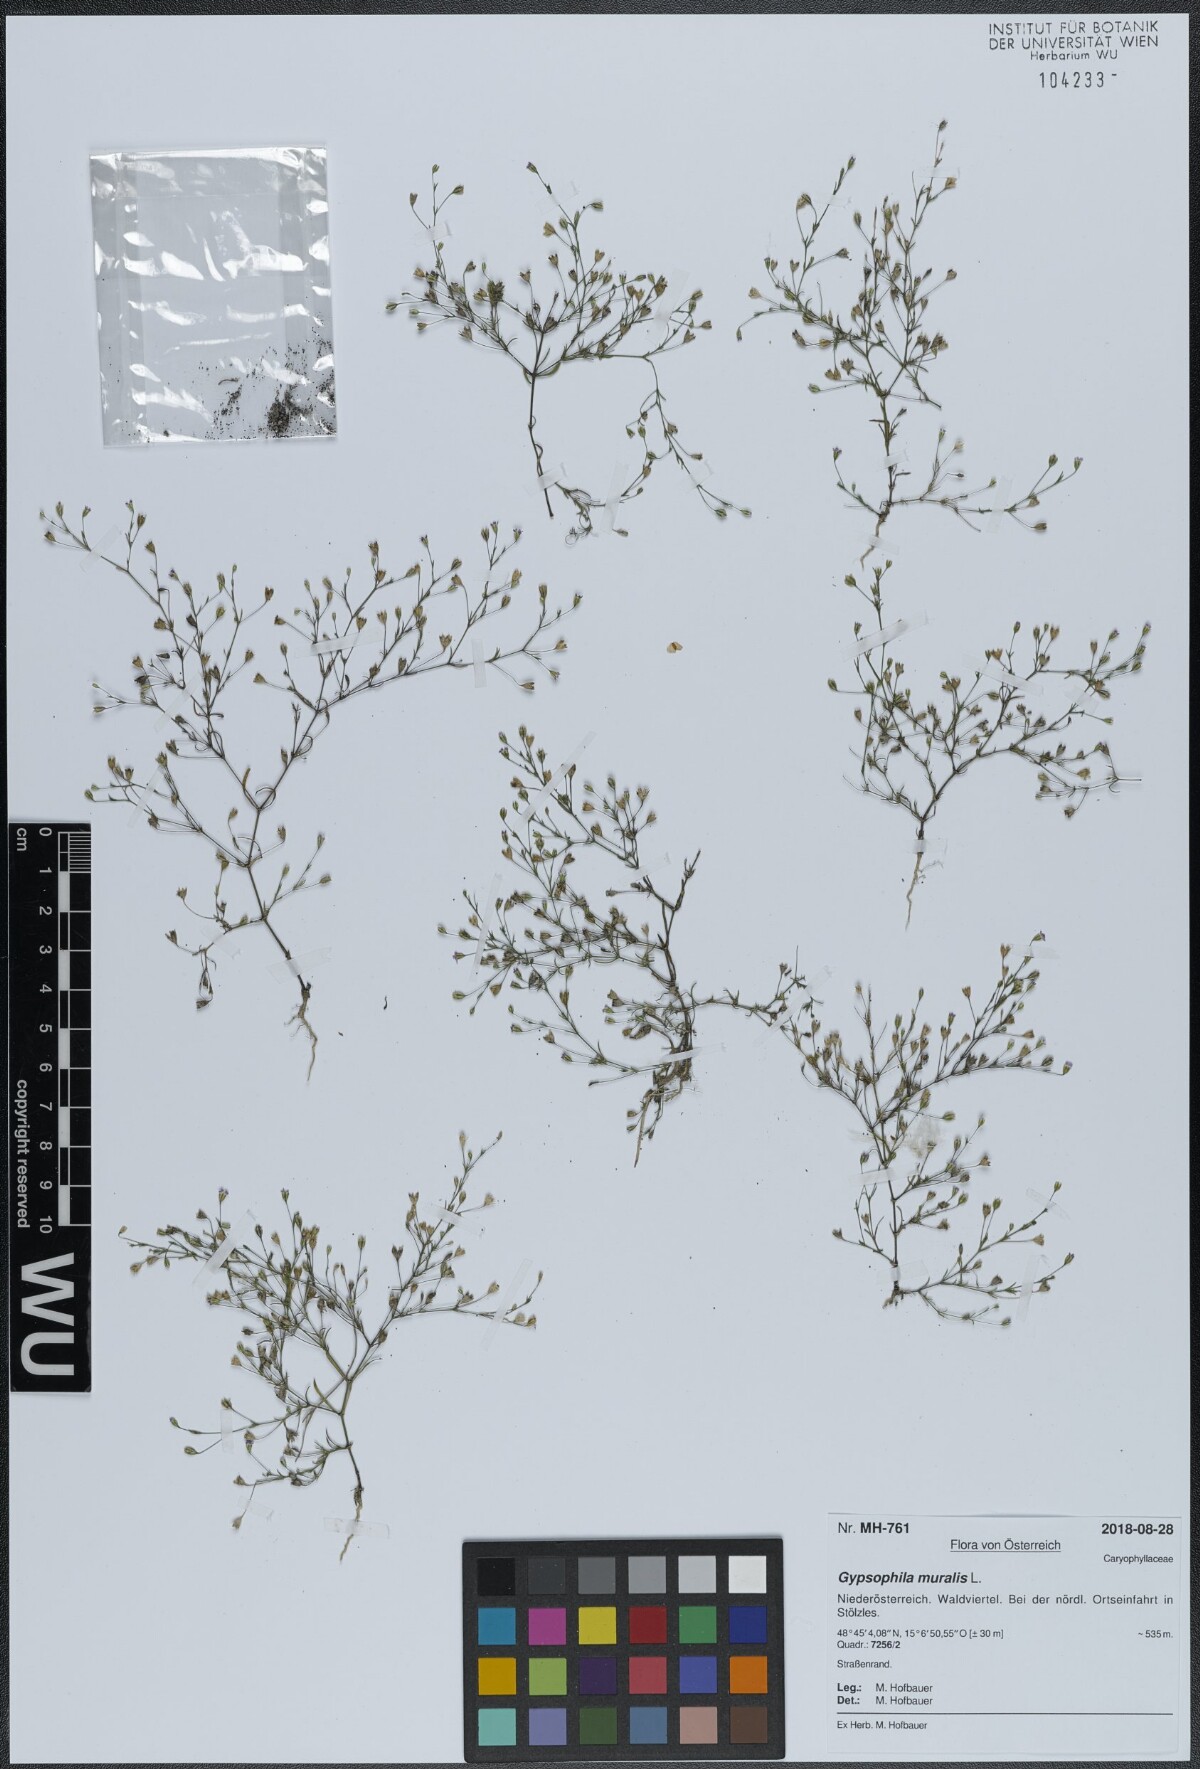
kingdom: Plantae
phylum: Tracheophyta
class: Magnoliopsida
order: Caryophyllales
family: Caryophyllaceae
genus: Psammophiliella
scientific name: Psammophiliella muralis
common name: Cushion baby's-breath
